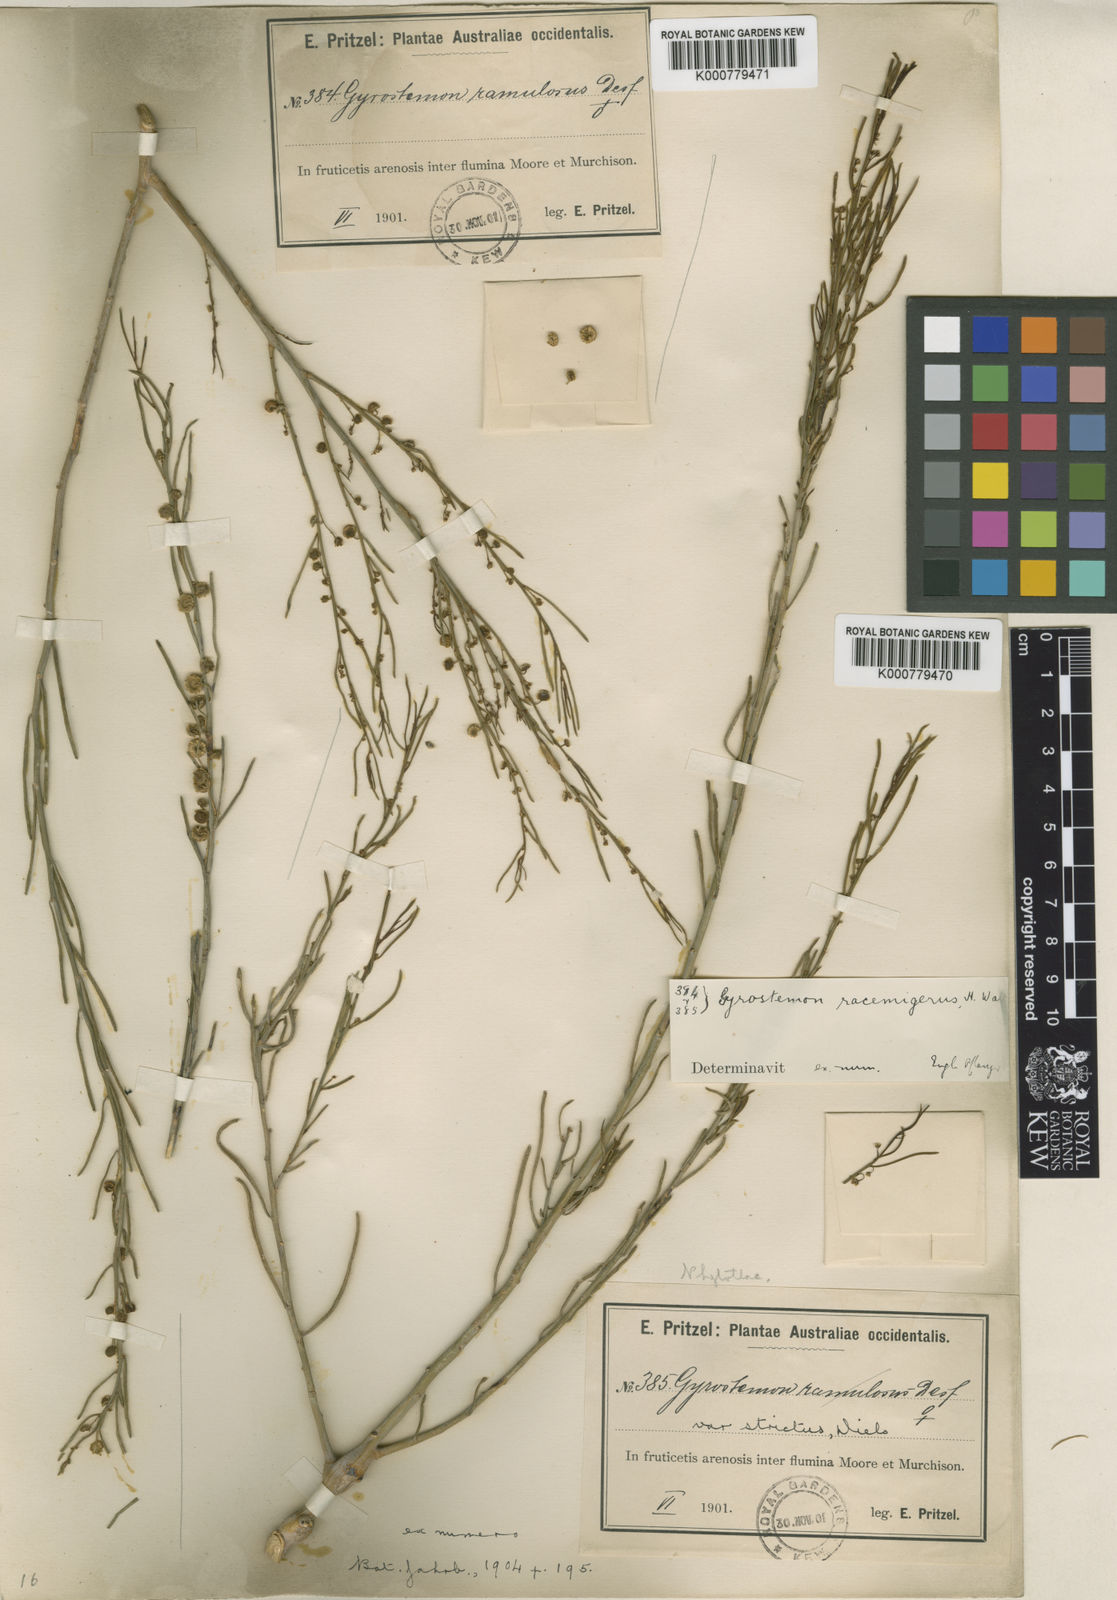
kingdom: Plantae
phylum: Tracheophyta
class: Magnoliopsida
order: Brassicales
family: Gyrostemonaceae
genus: Gyrostemon
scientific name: Gyrostemon racemiger
